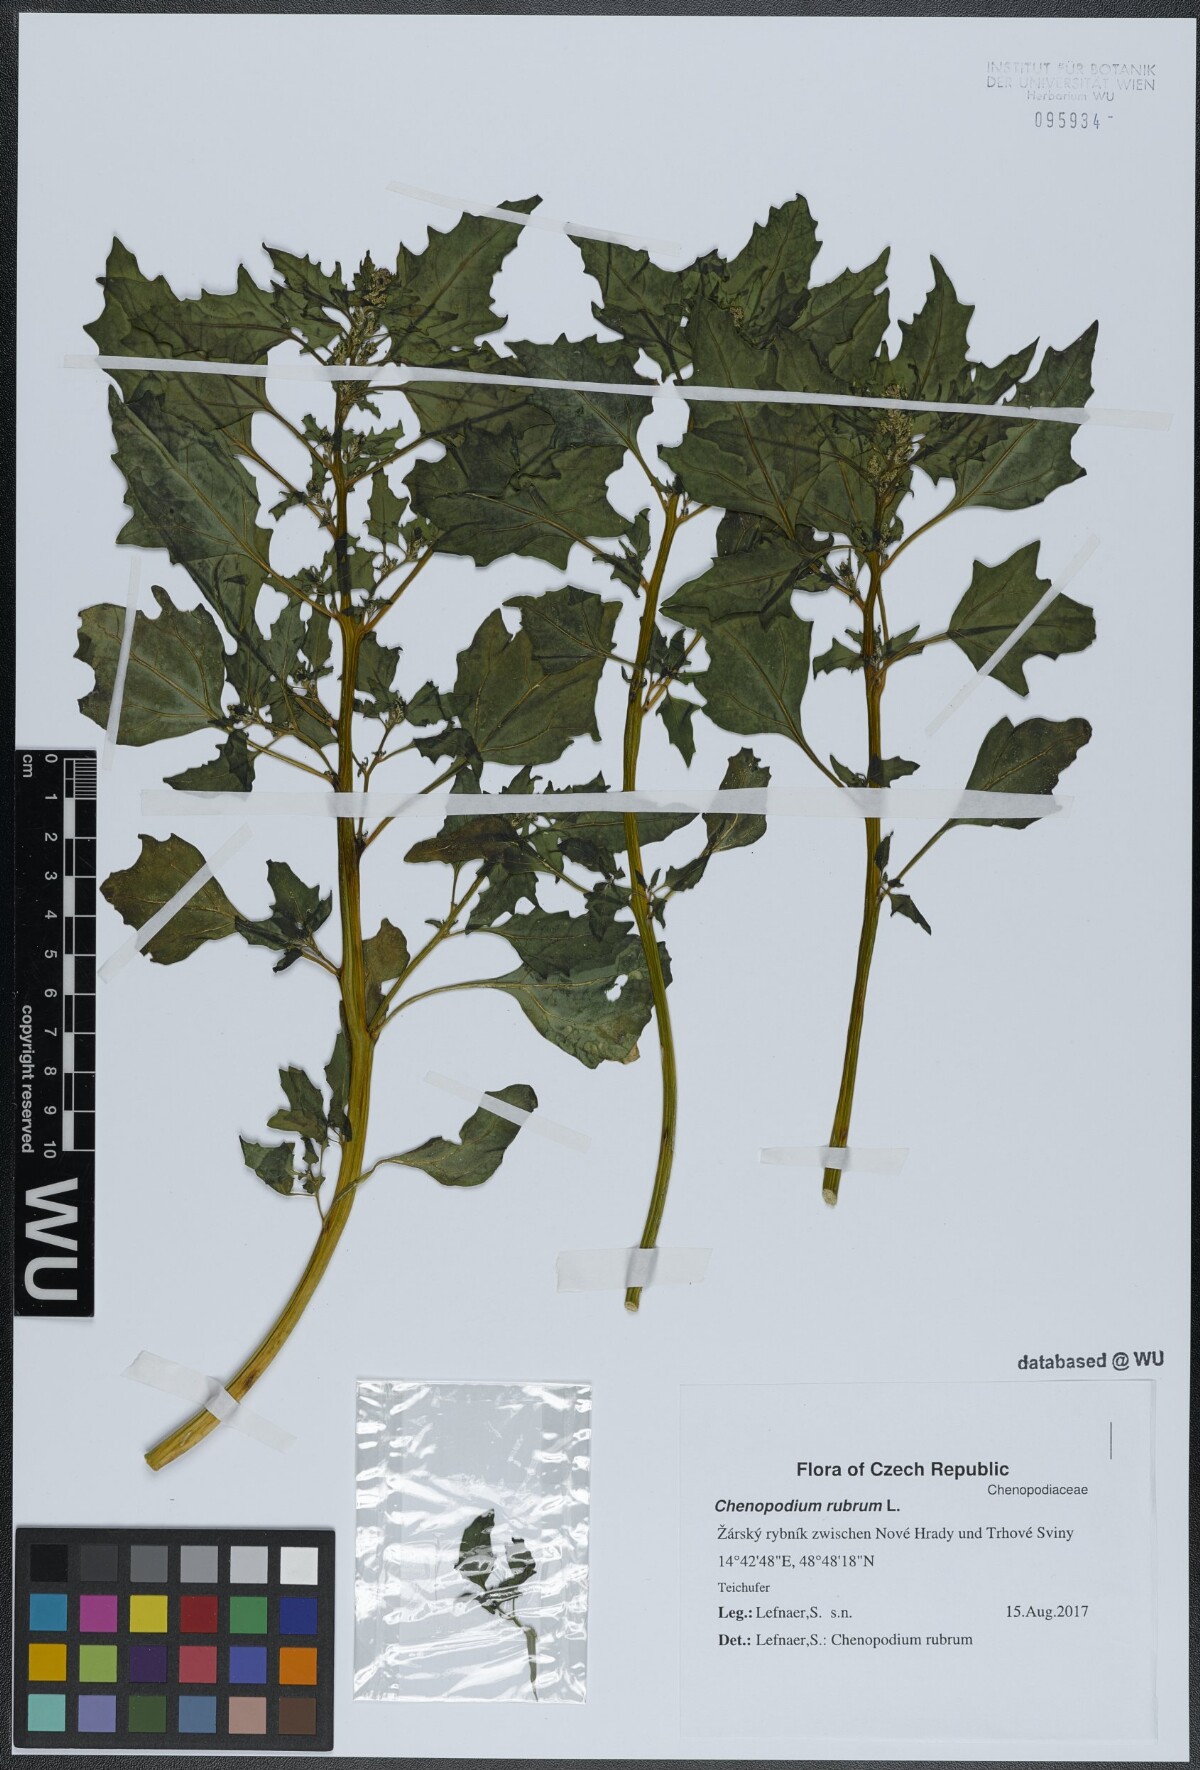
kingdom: Plantae
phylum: Tracheophyta
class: Magnoliopsida
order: Caryophyllales
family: Amaranthaceae
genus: Oxybasis
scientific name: Oxybasis rubra
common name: Red goosefoot
